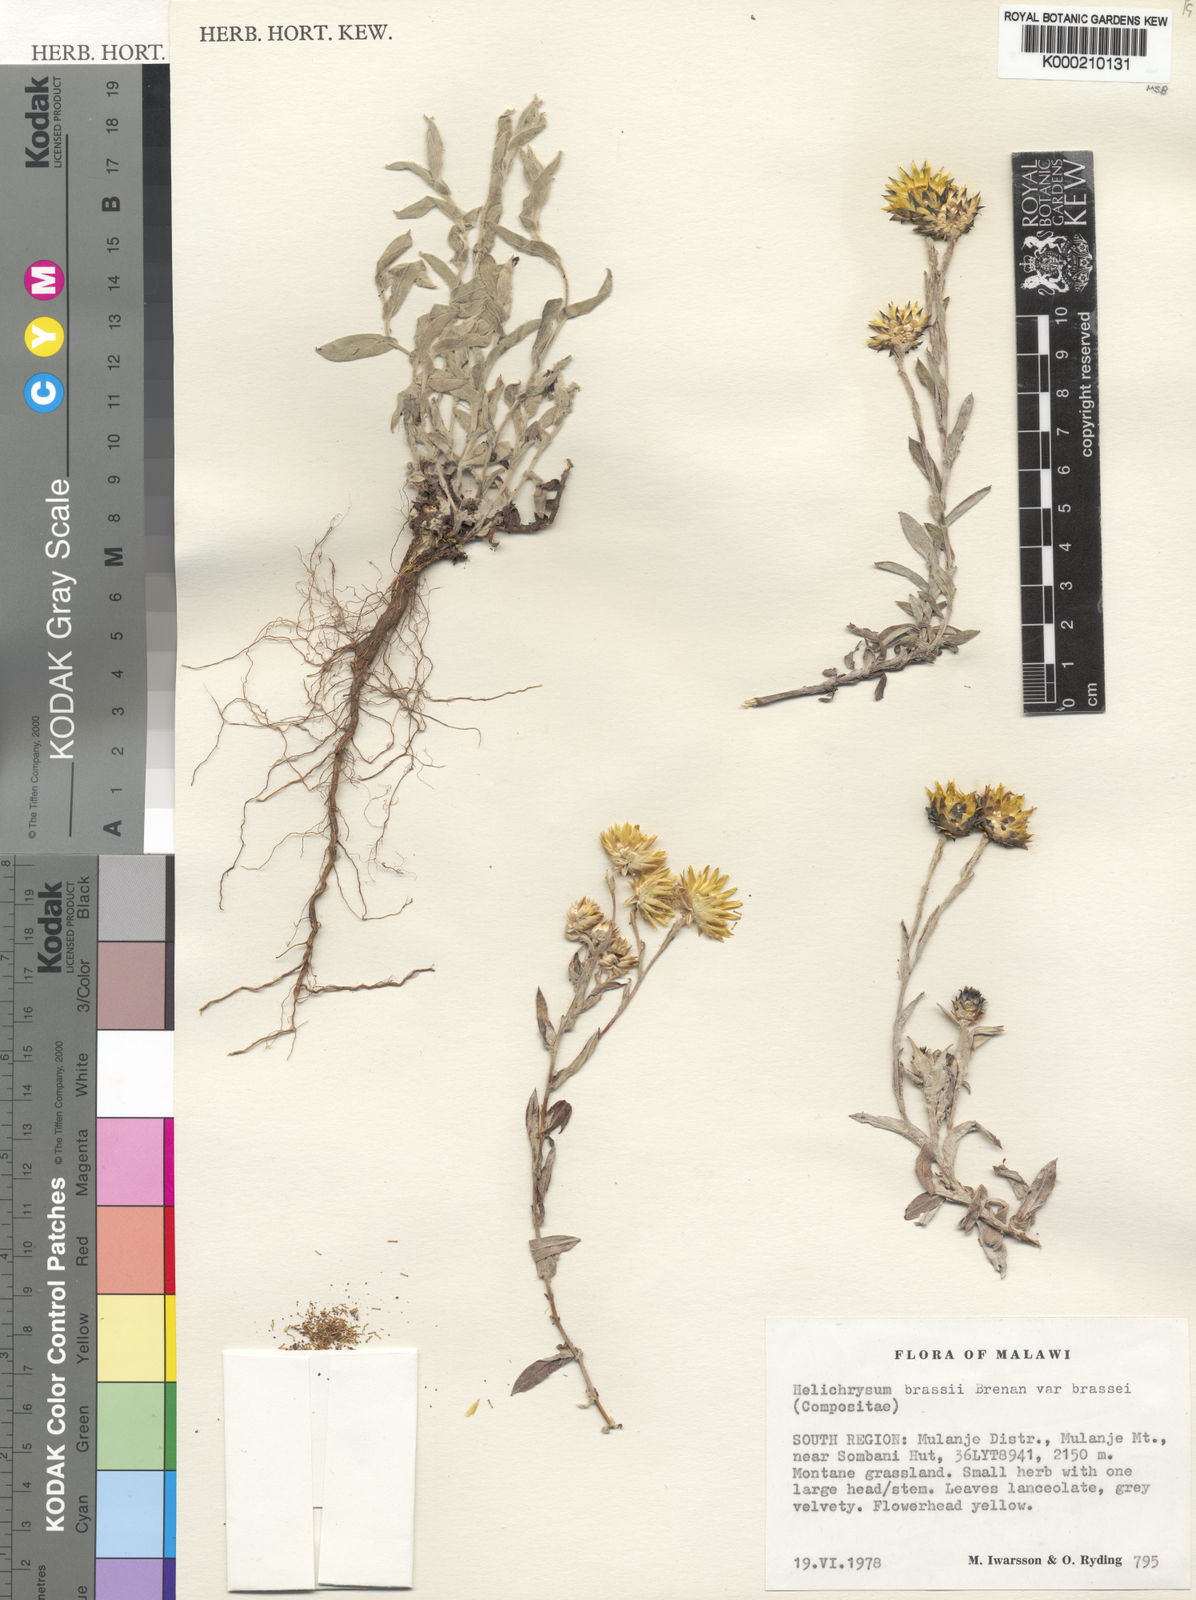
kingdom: Plantae
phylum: Tracheophyta
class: Magnoliopsida
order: Asterales
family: Asteraceae
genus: Helichrysum
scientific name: Helichrysum
